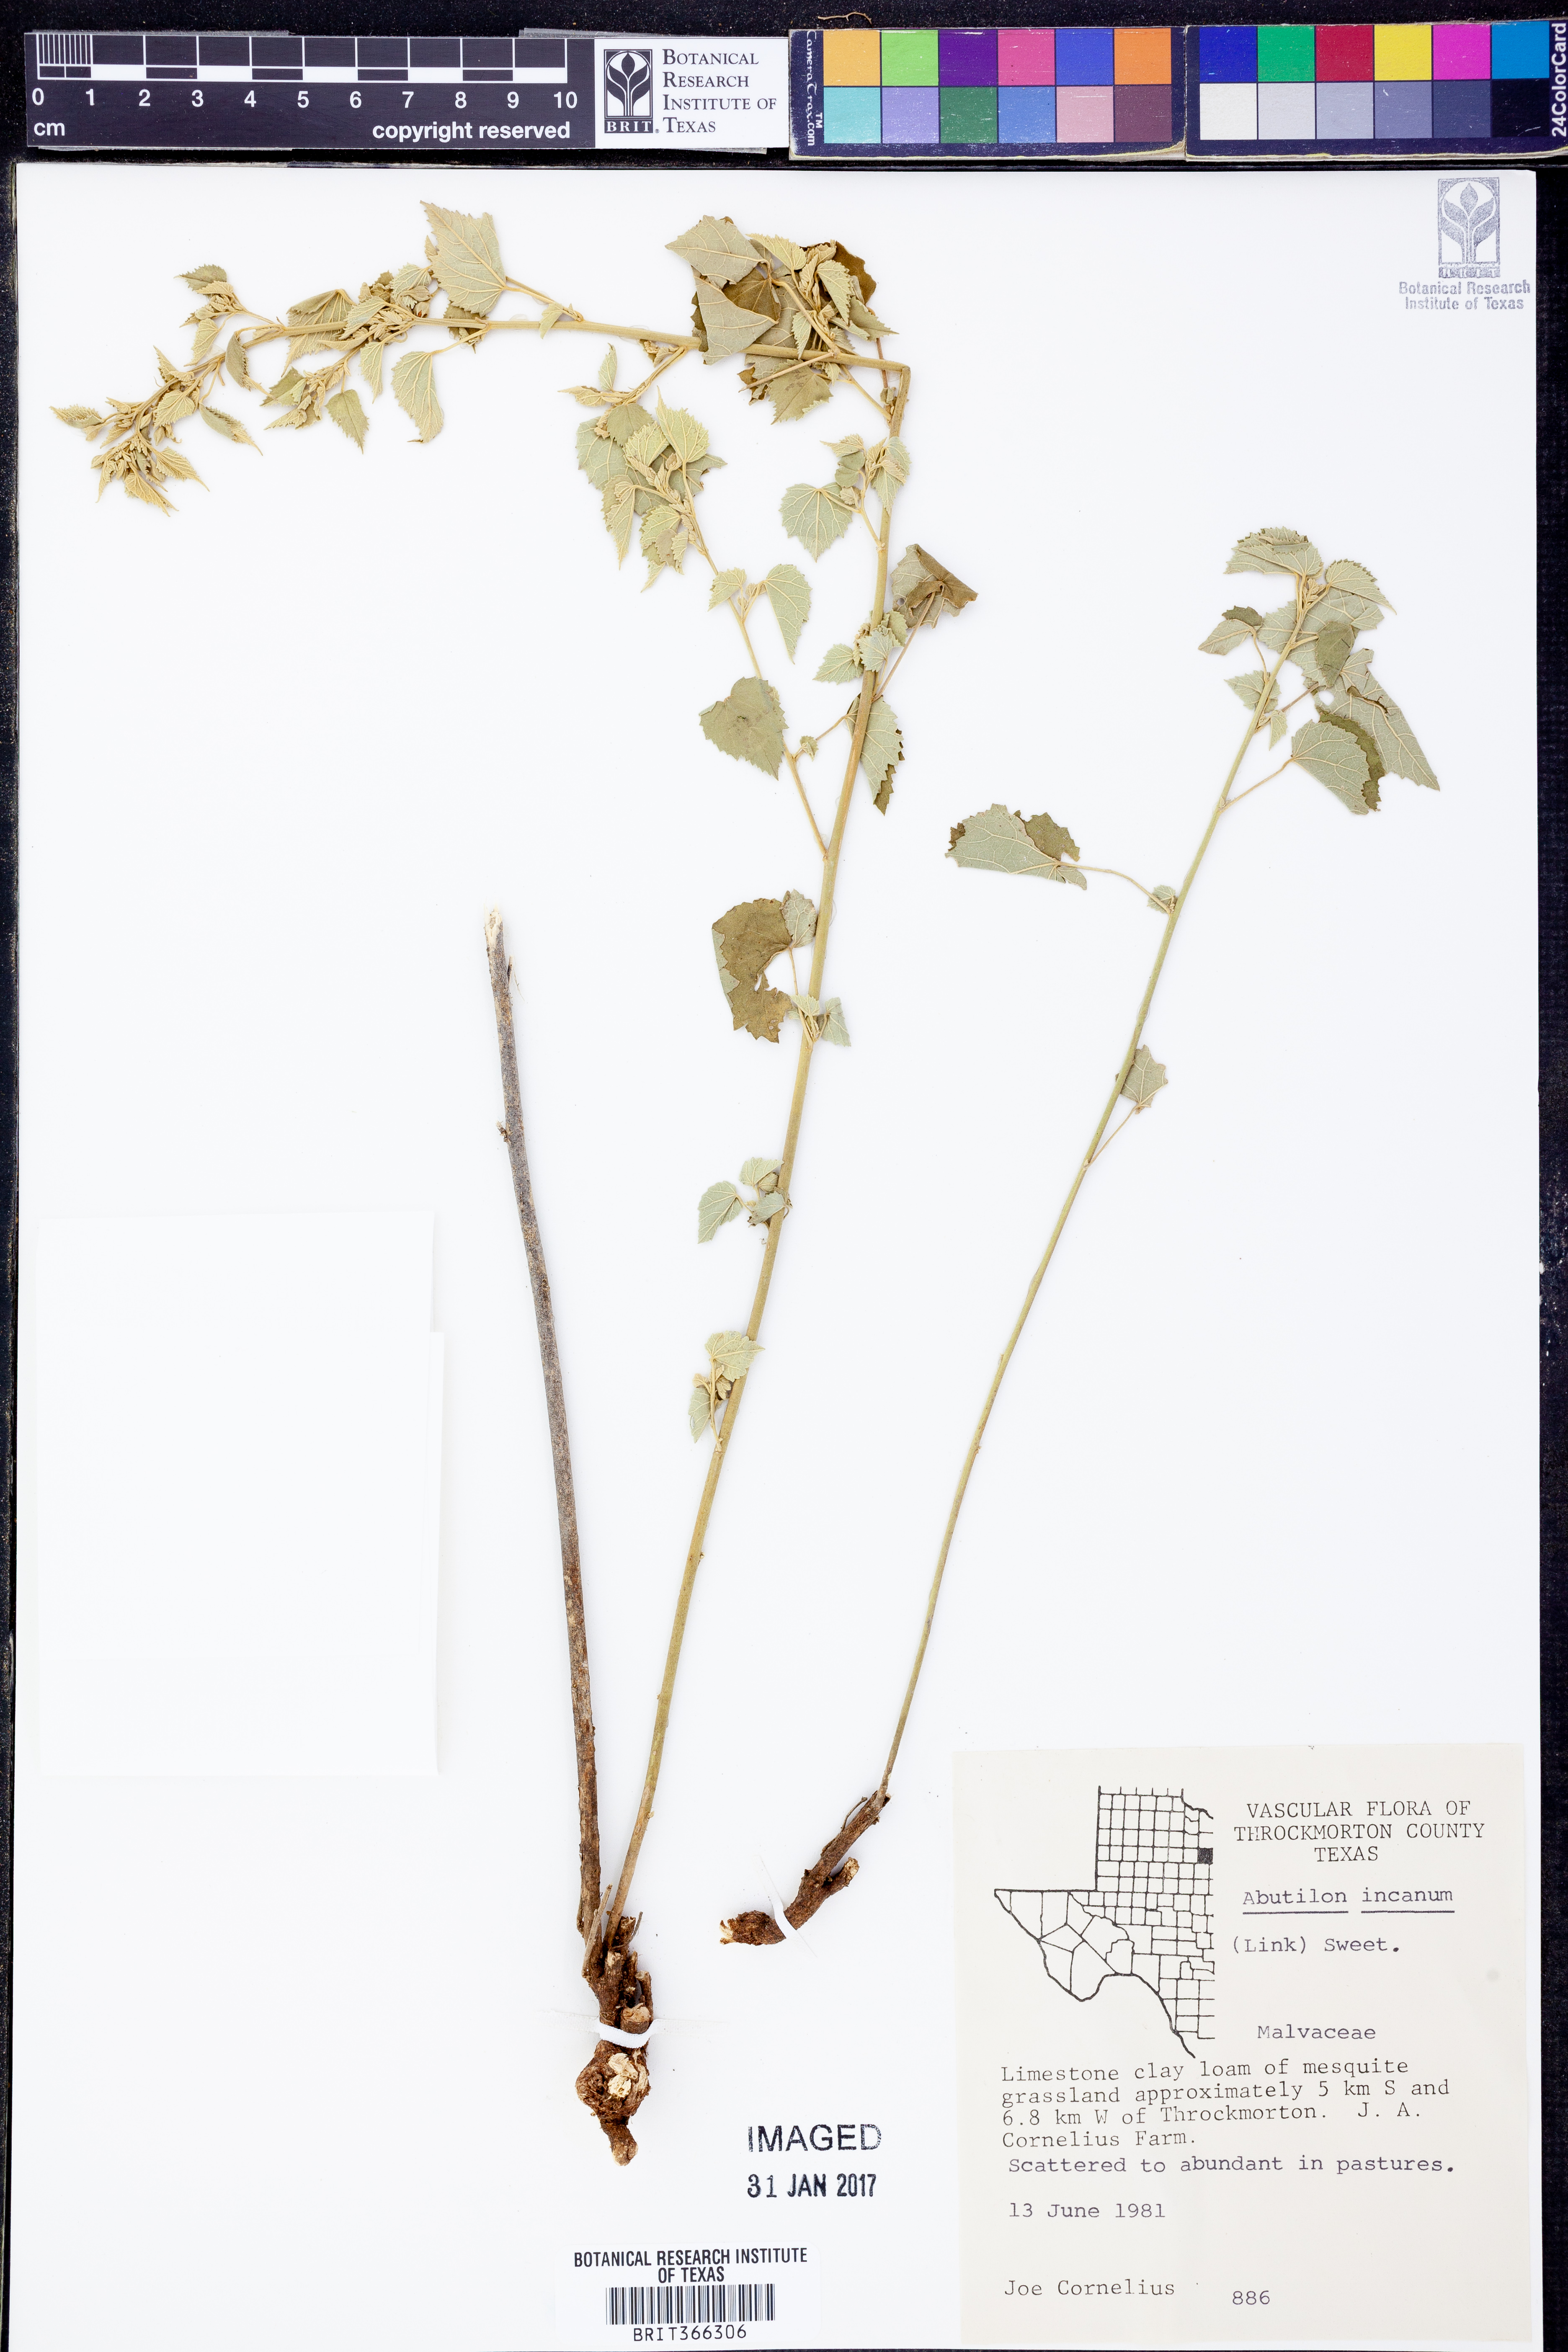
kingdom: Plantae
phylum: Tracheophyta
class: Magnoliopsida
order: Malvales
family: Malvaceae
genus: Abutilon
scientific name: Abutilon incanum
